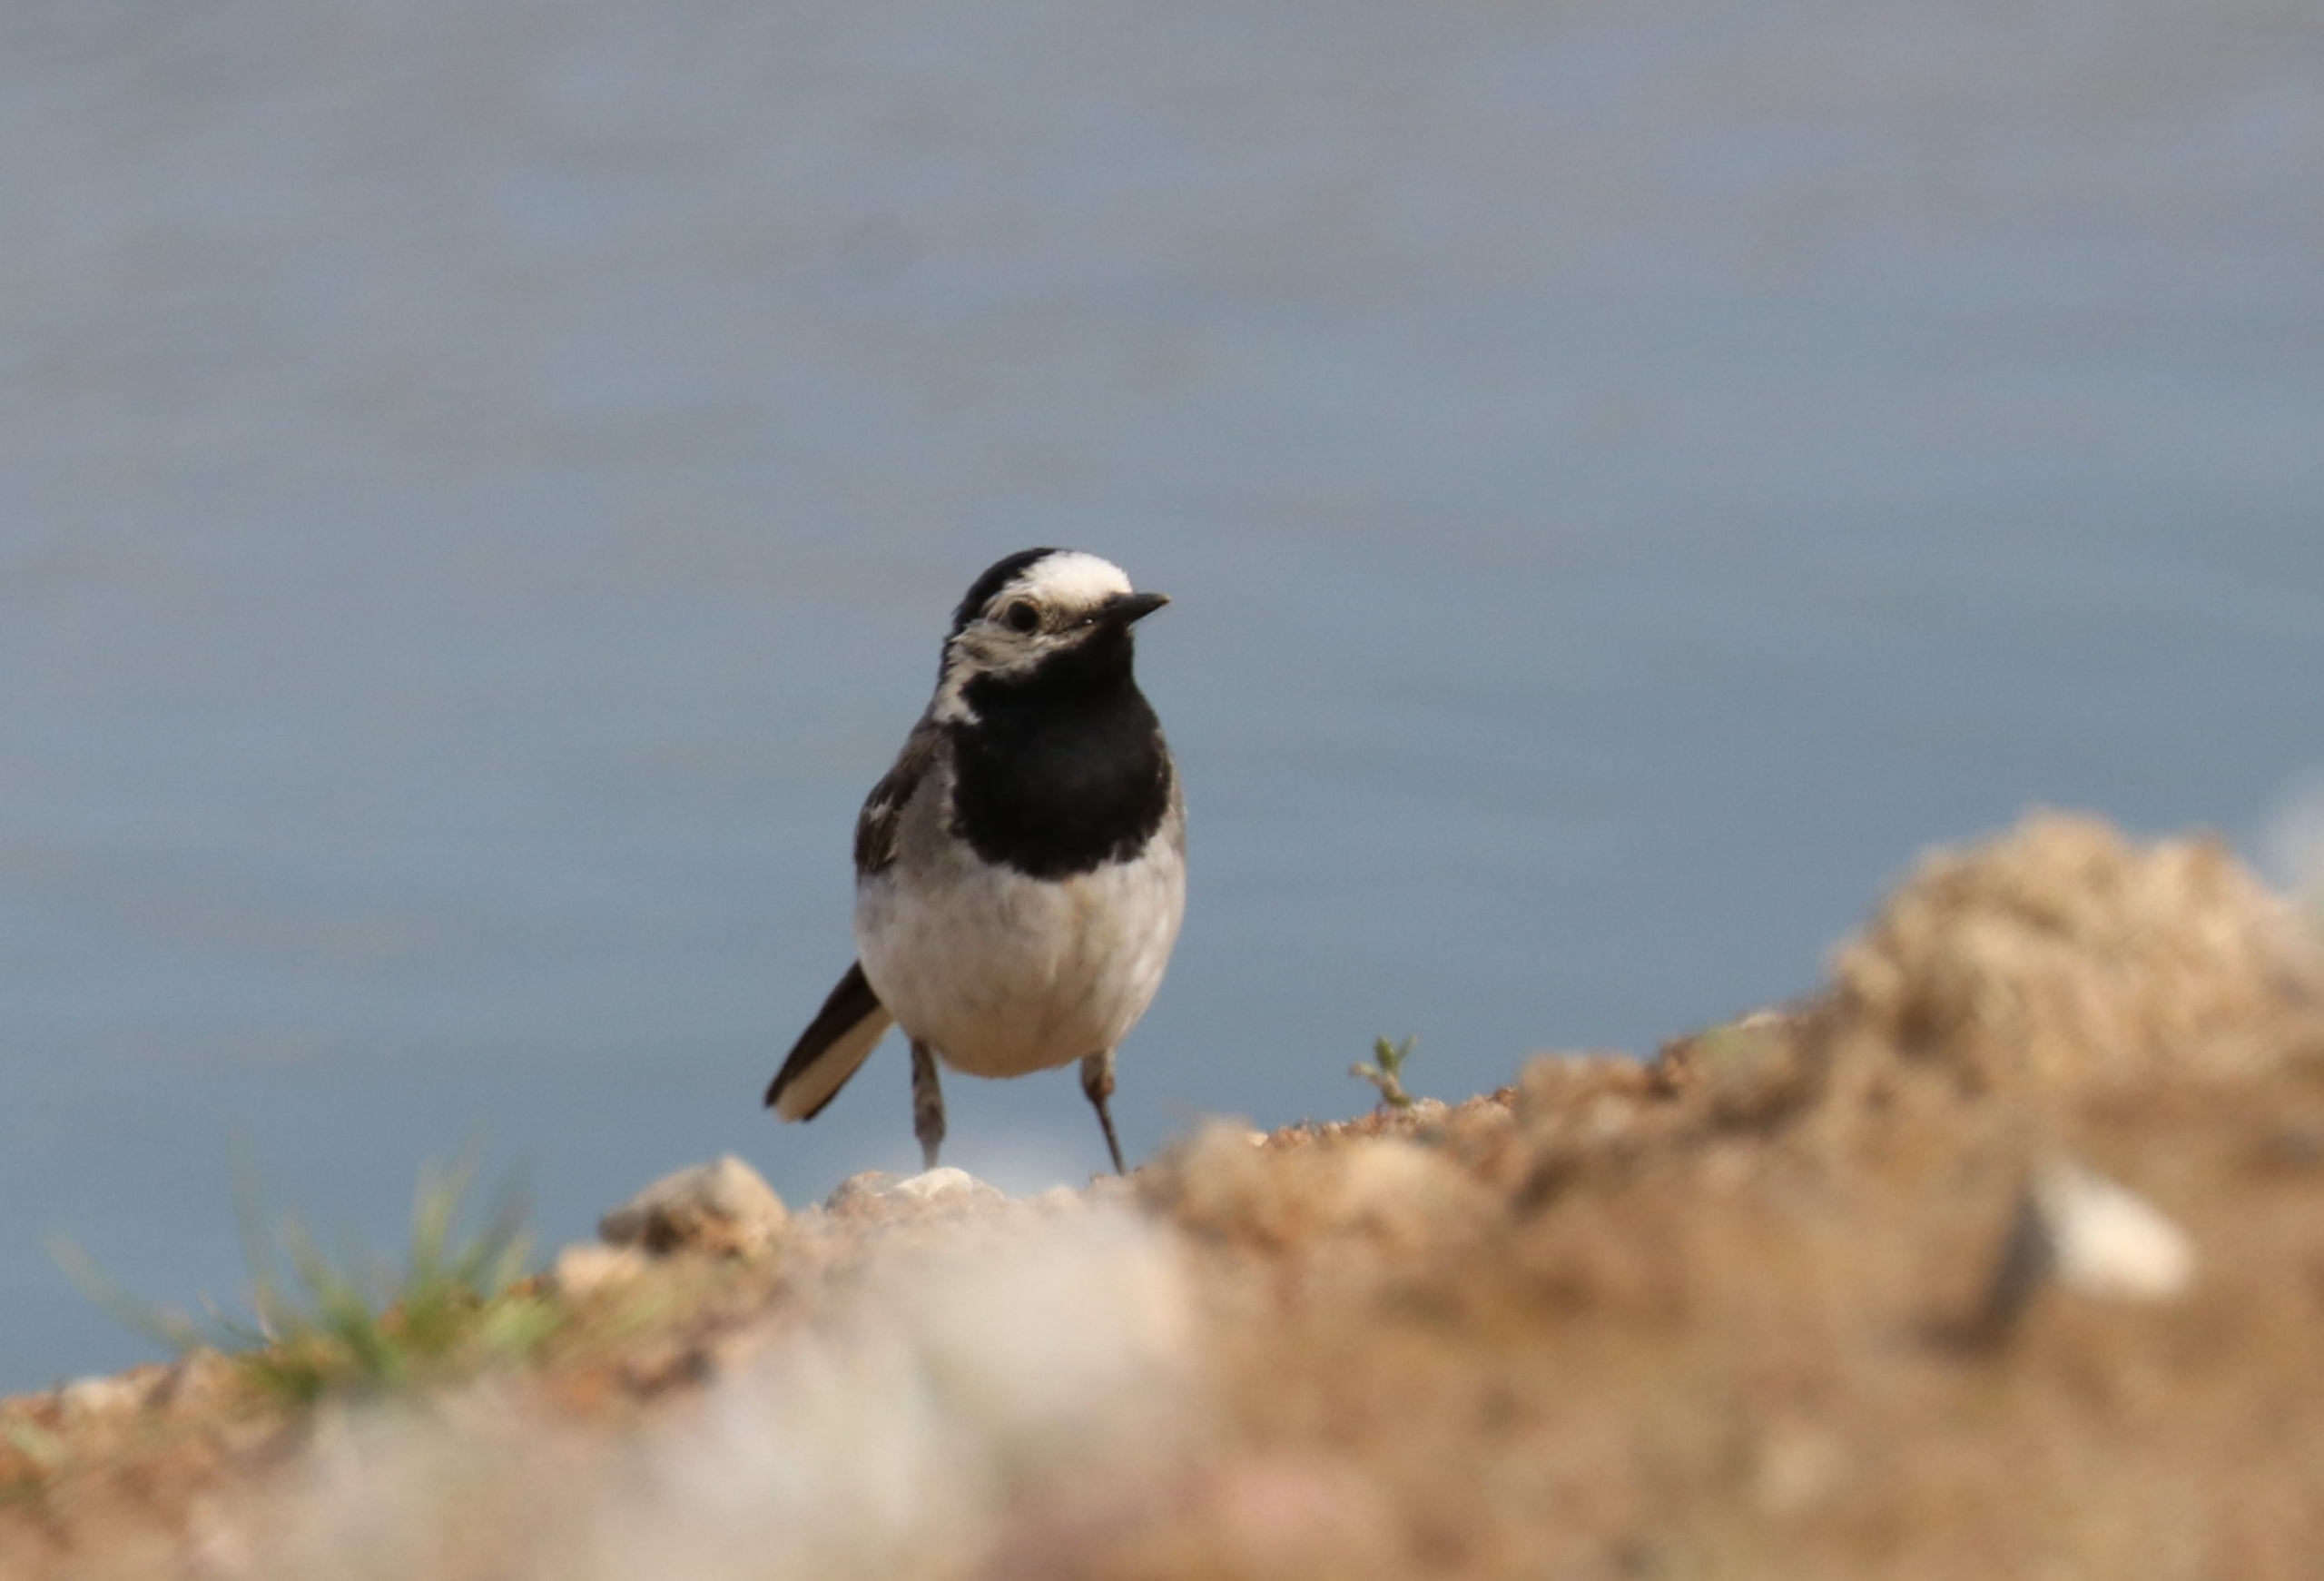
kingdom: Animalia
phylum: Chordata
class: Aves
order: Passeriformes
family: Motacillidae
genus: Motacilla
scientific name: Motacilla alba
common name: Hvid vipstjert
